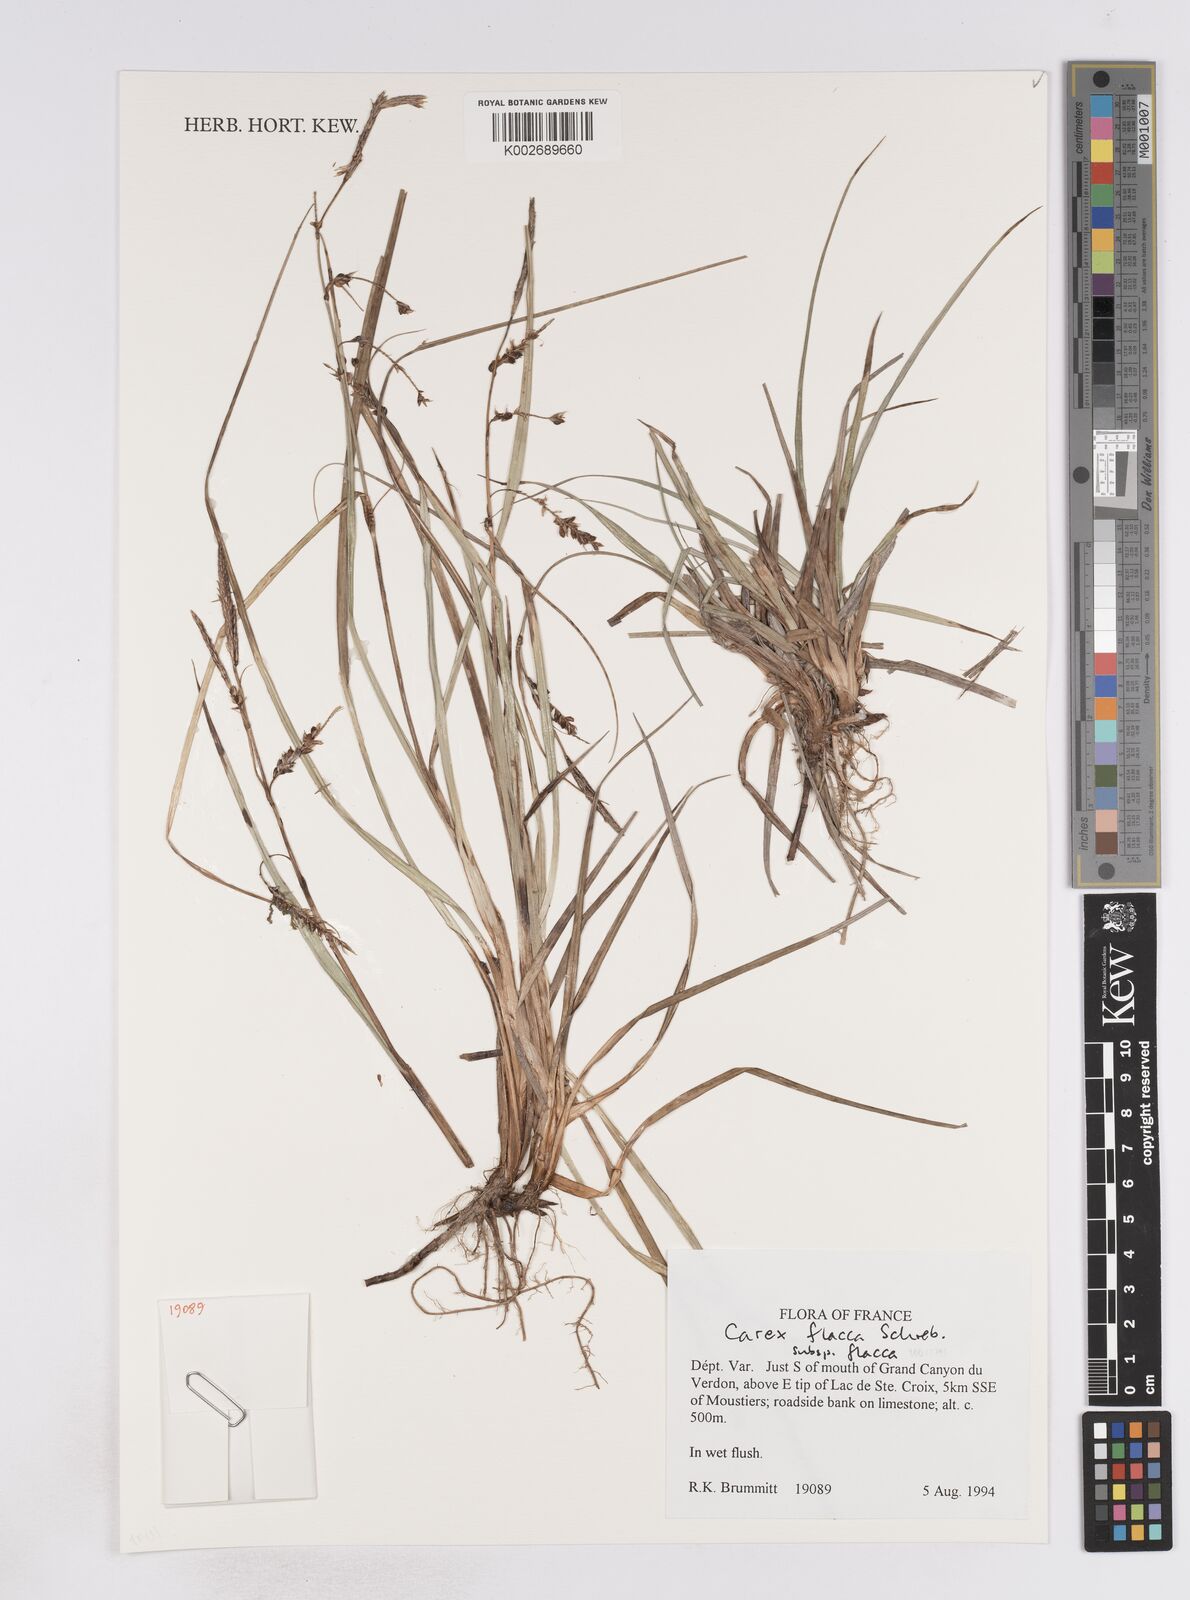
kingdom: Plantae
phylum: Tracheophyta
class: Liliopsida
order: Poales
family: Cyperaceae
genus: Carex
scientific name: Carex flacca
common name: Glaucous sedge
